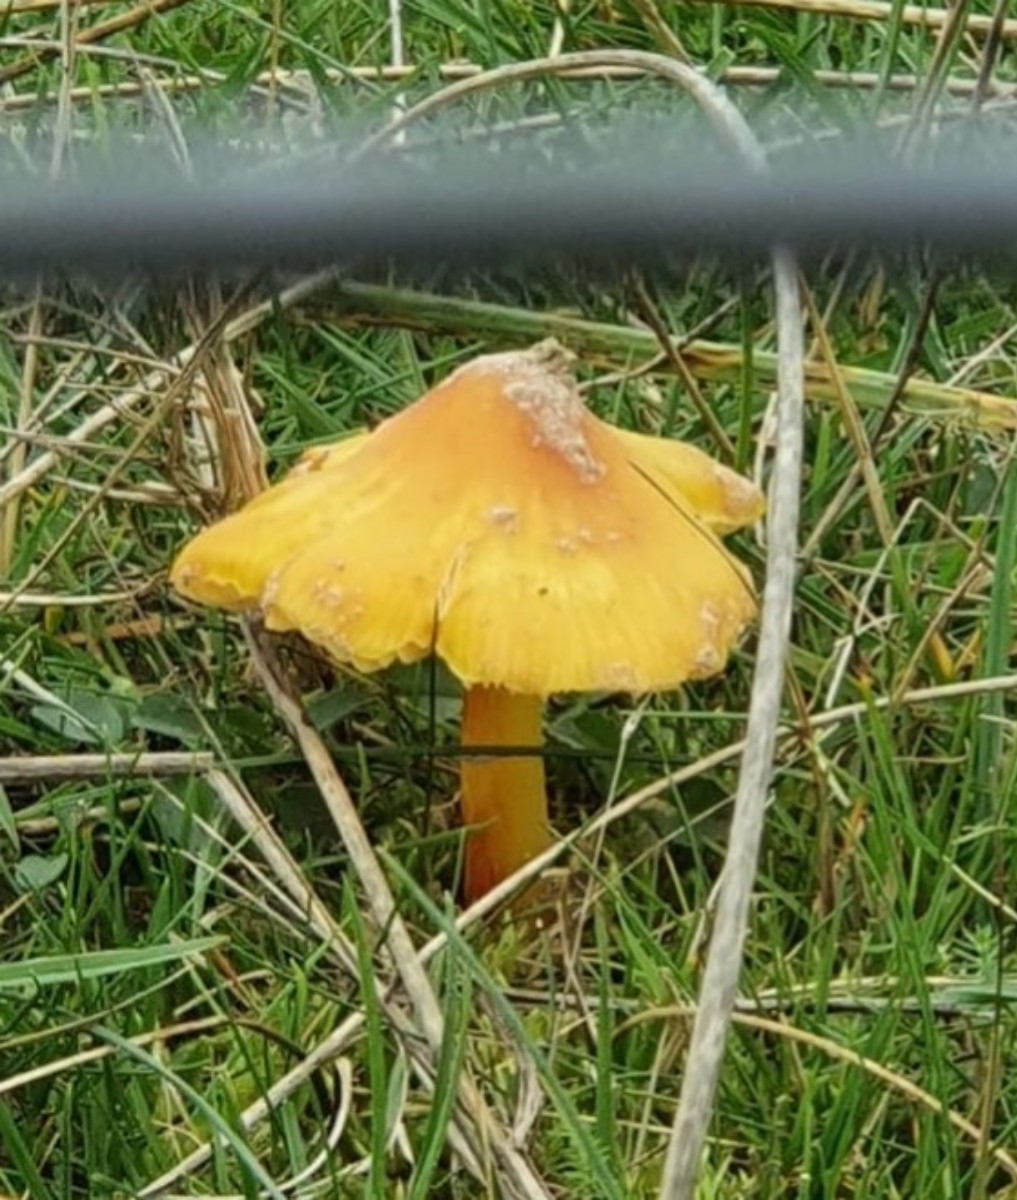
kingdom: Fungi
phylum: Basidiomycota
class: Agaricomycetes
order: Agaricales
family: Hygrophoraceae
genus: Hygrocybe
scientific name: Hygrocybe
